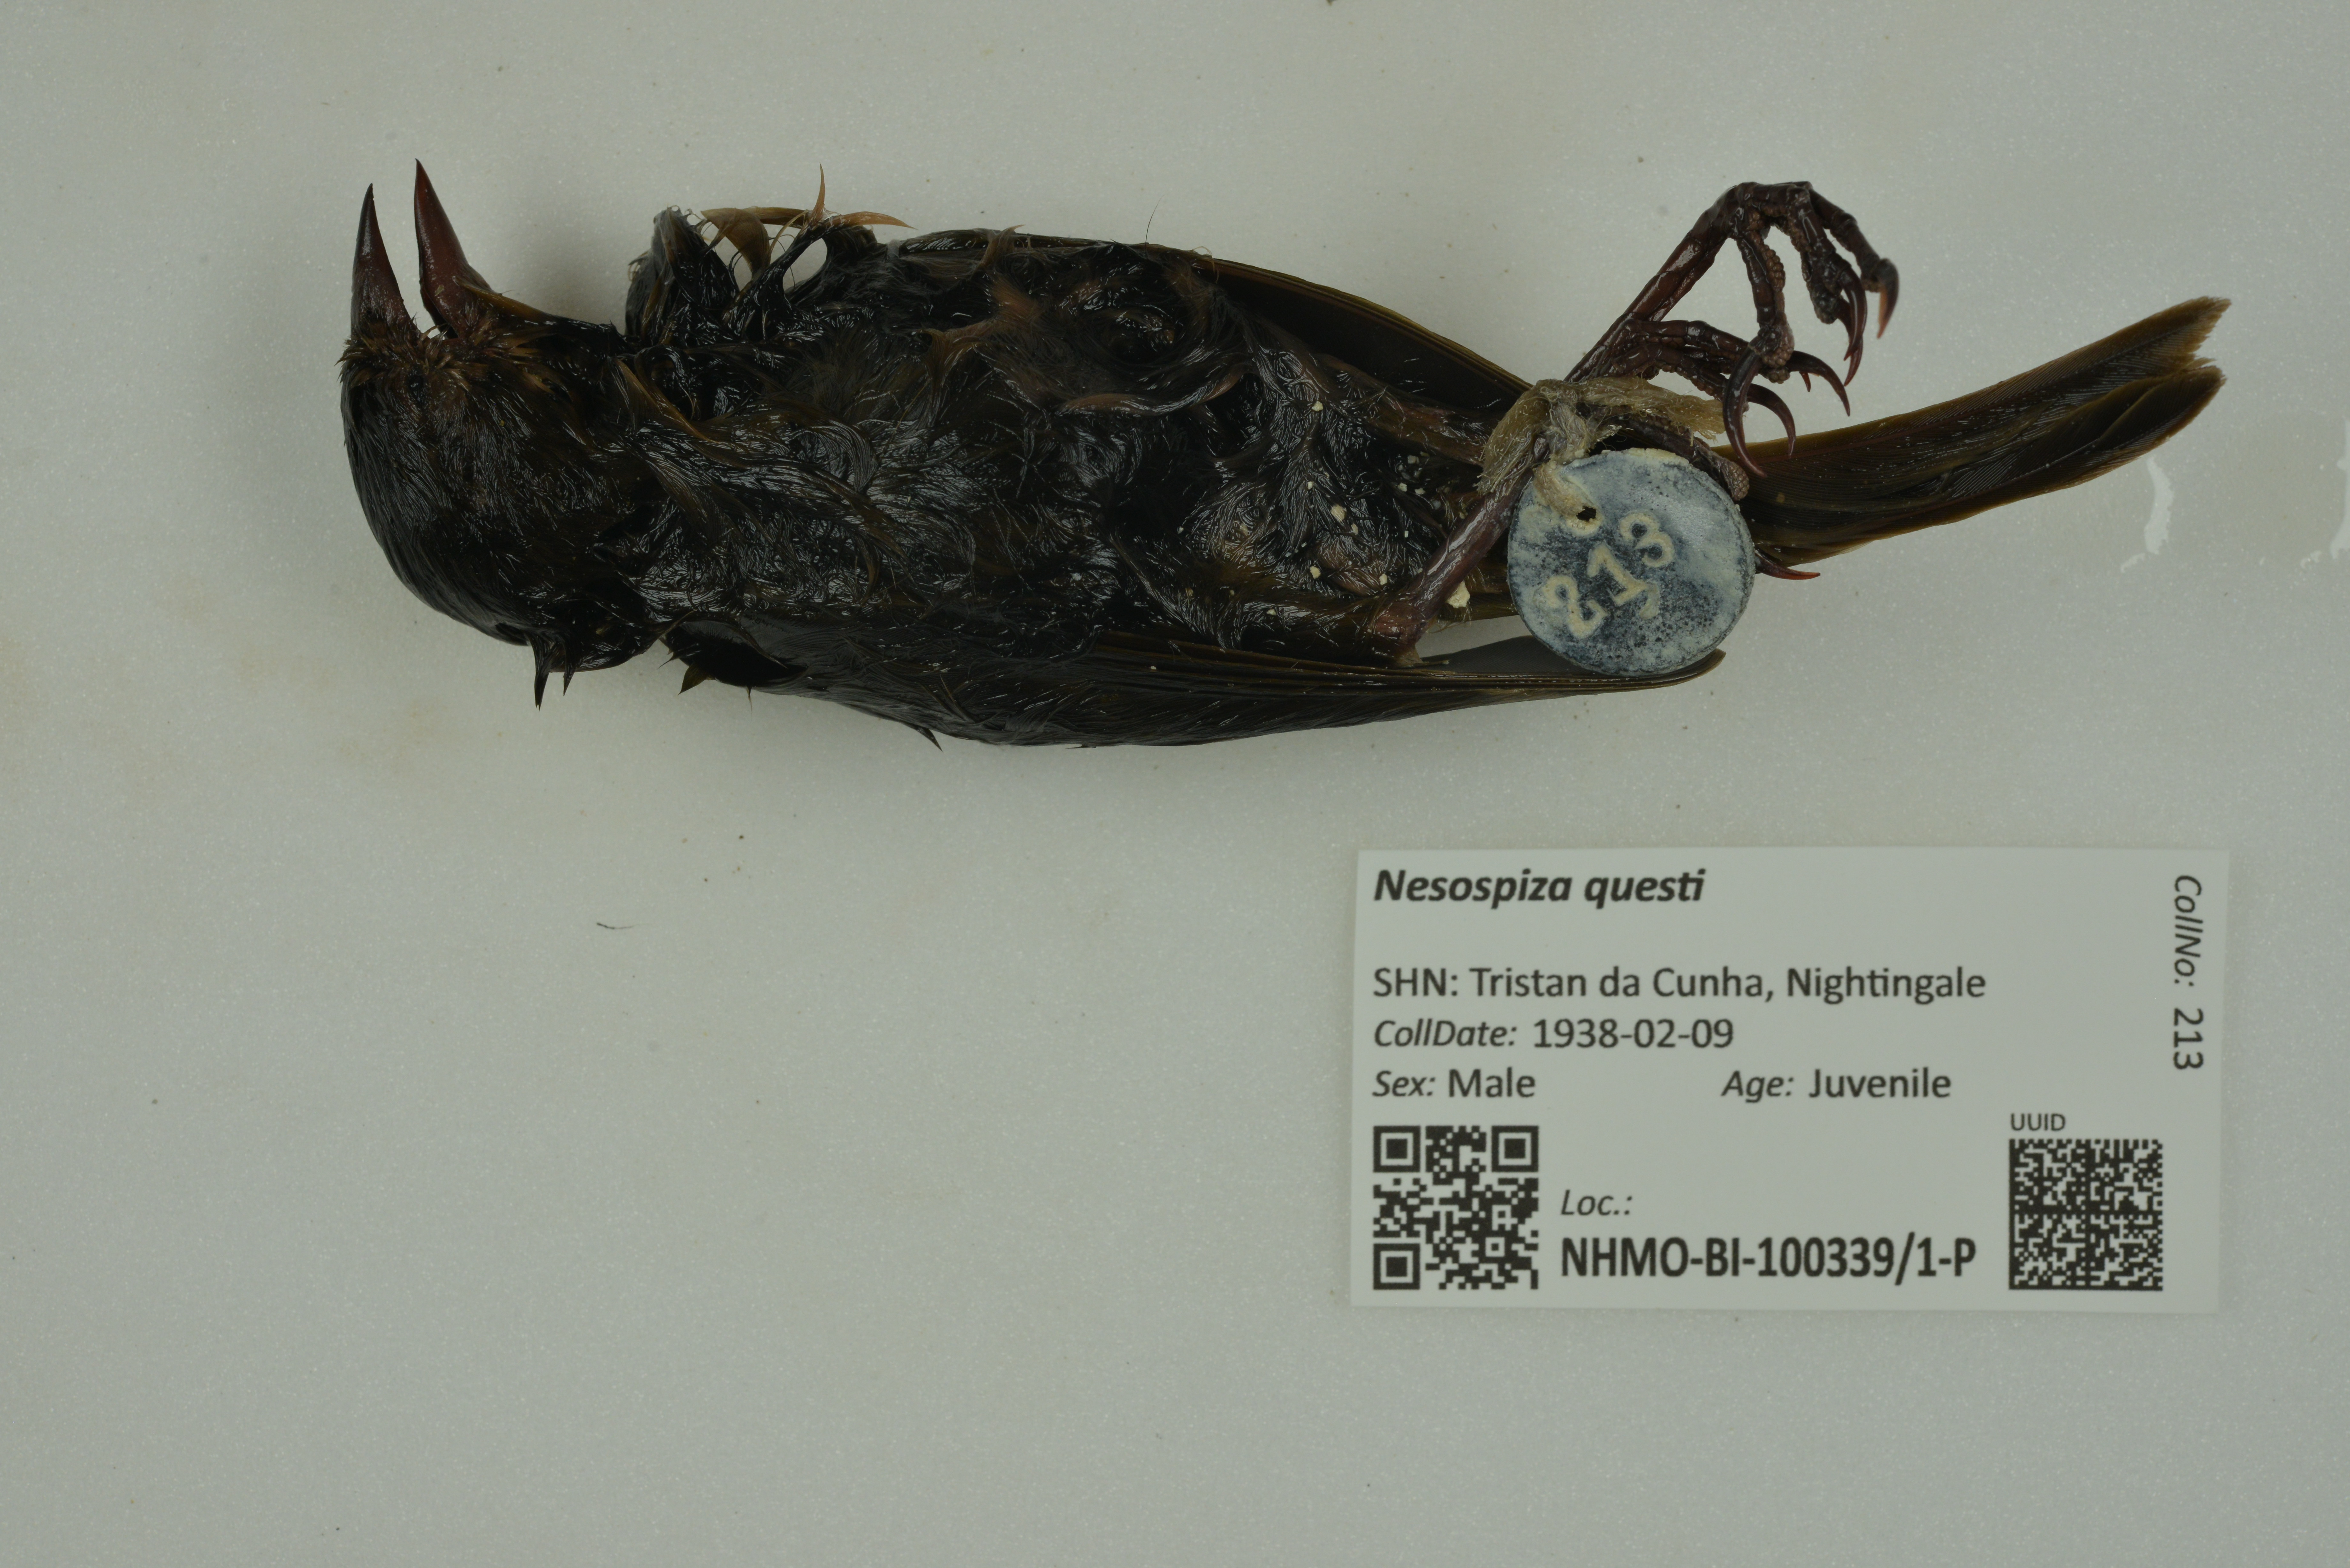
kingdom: Animalia
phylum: Chordata
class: Aves
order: Passeriformes
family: Thraupidae
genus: Nesospiza
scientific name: Nesospiza questi
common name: Nightingale island finch
